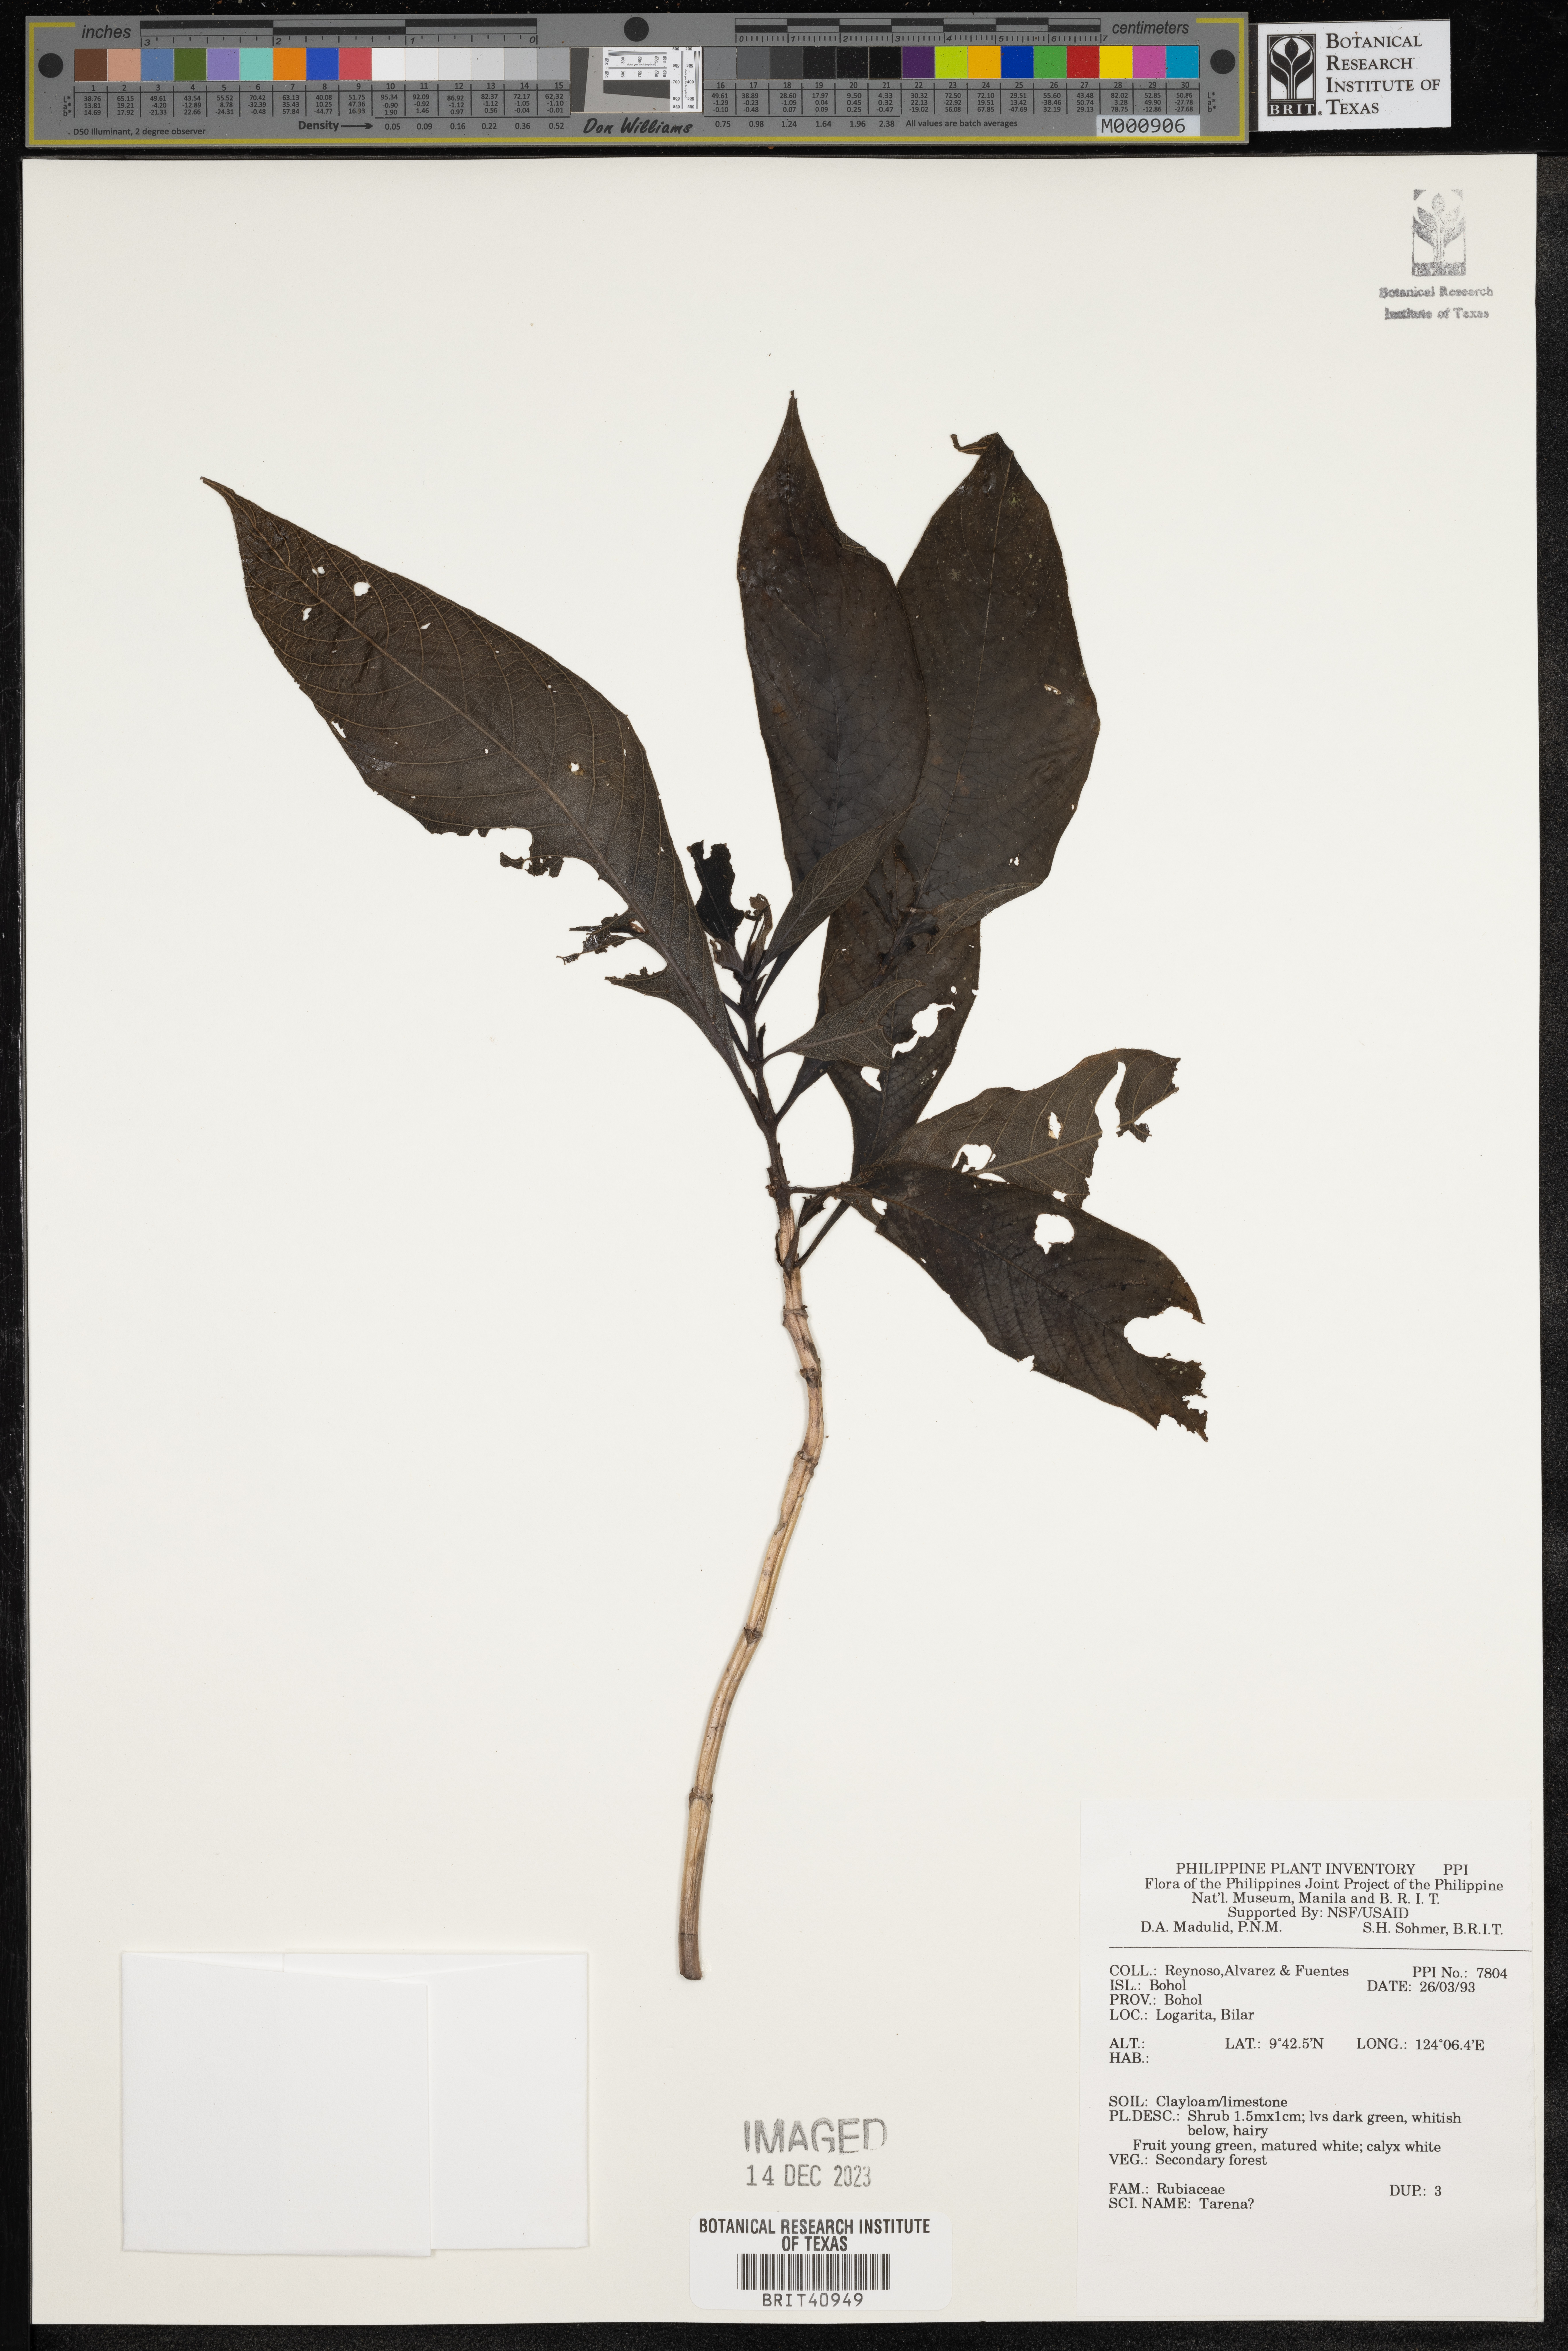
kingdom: Plantae
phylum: Tracheophyta
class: Magnoliopsida
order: Gentianales
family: Rubiaceae
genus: Tarenna
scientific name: Tarenna
